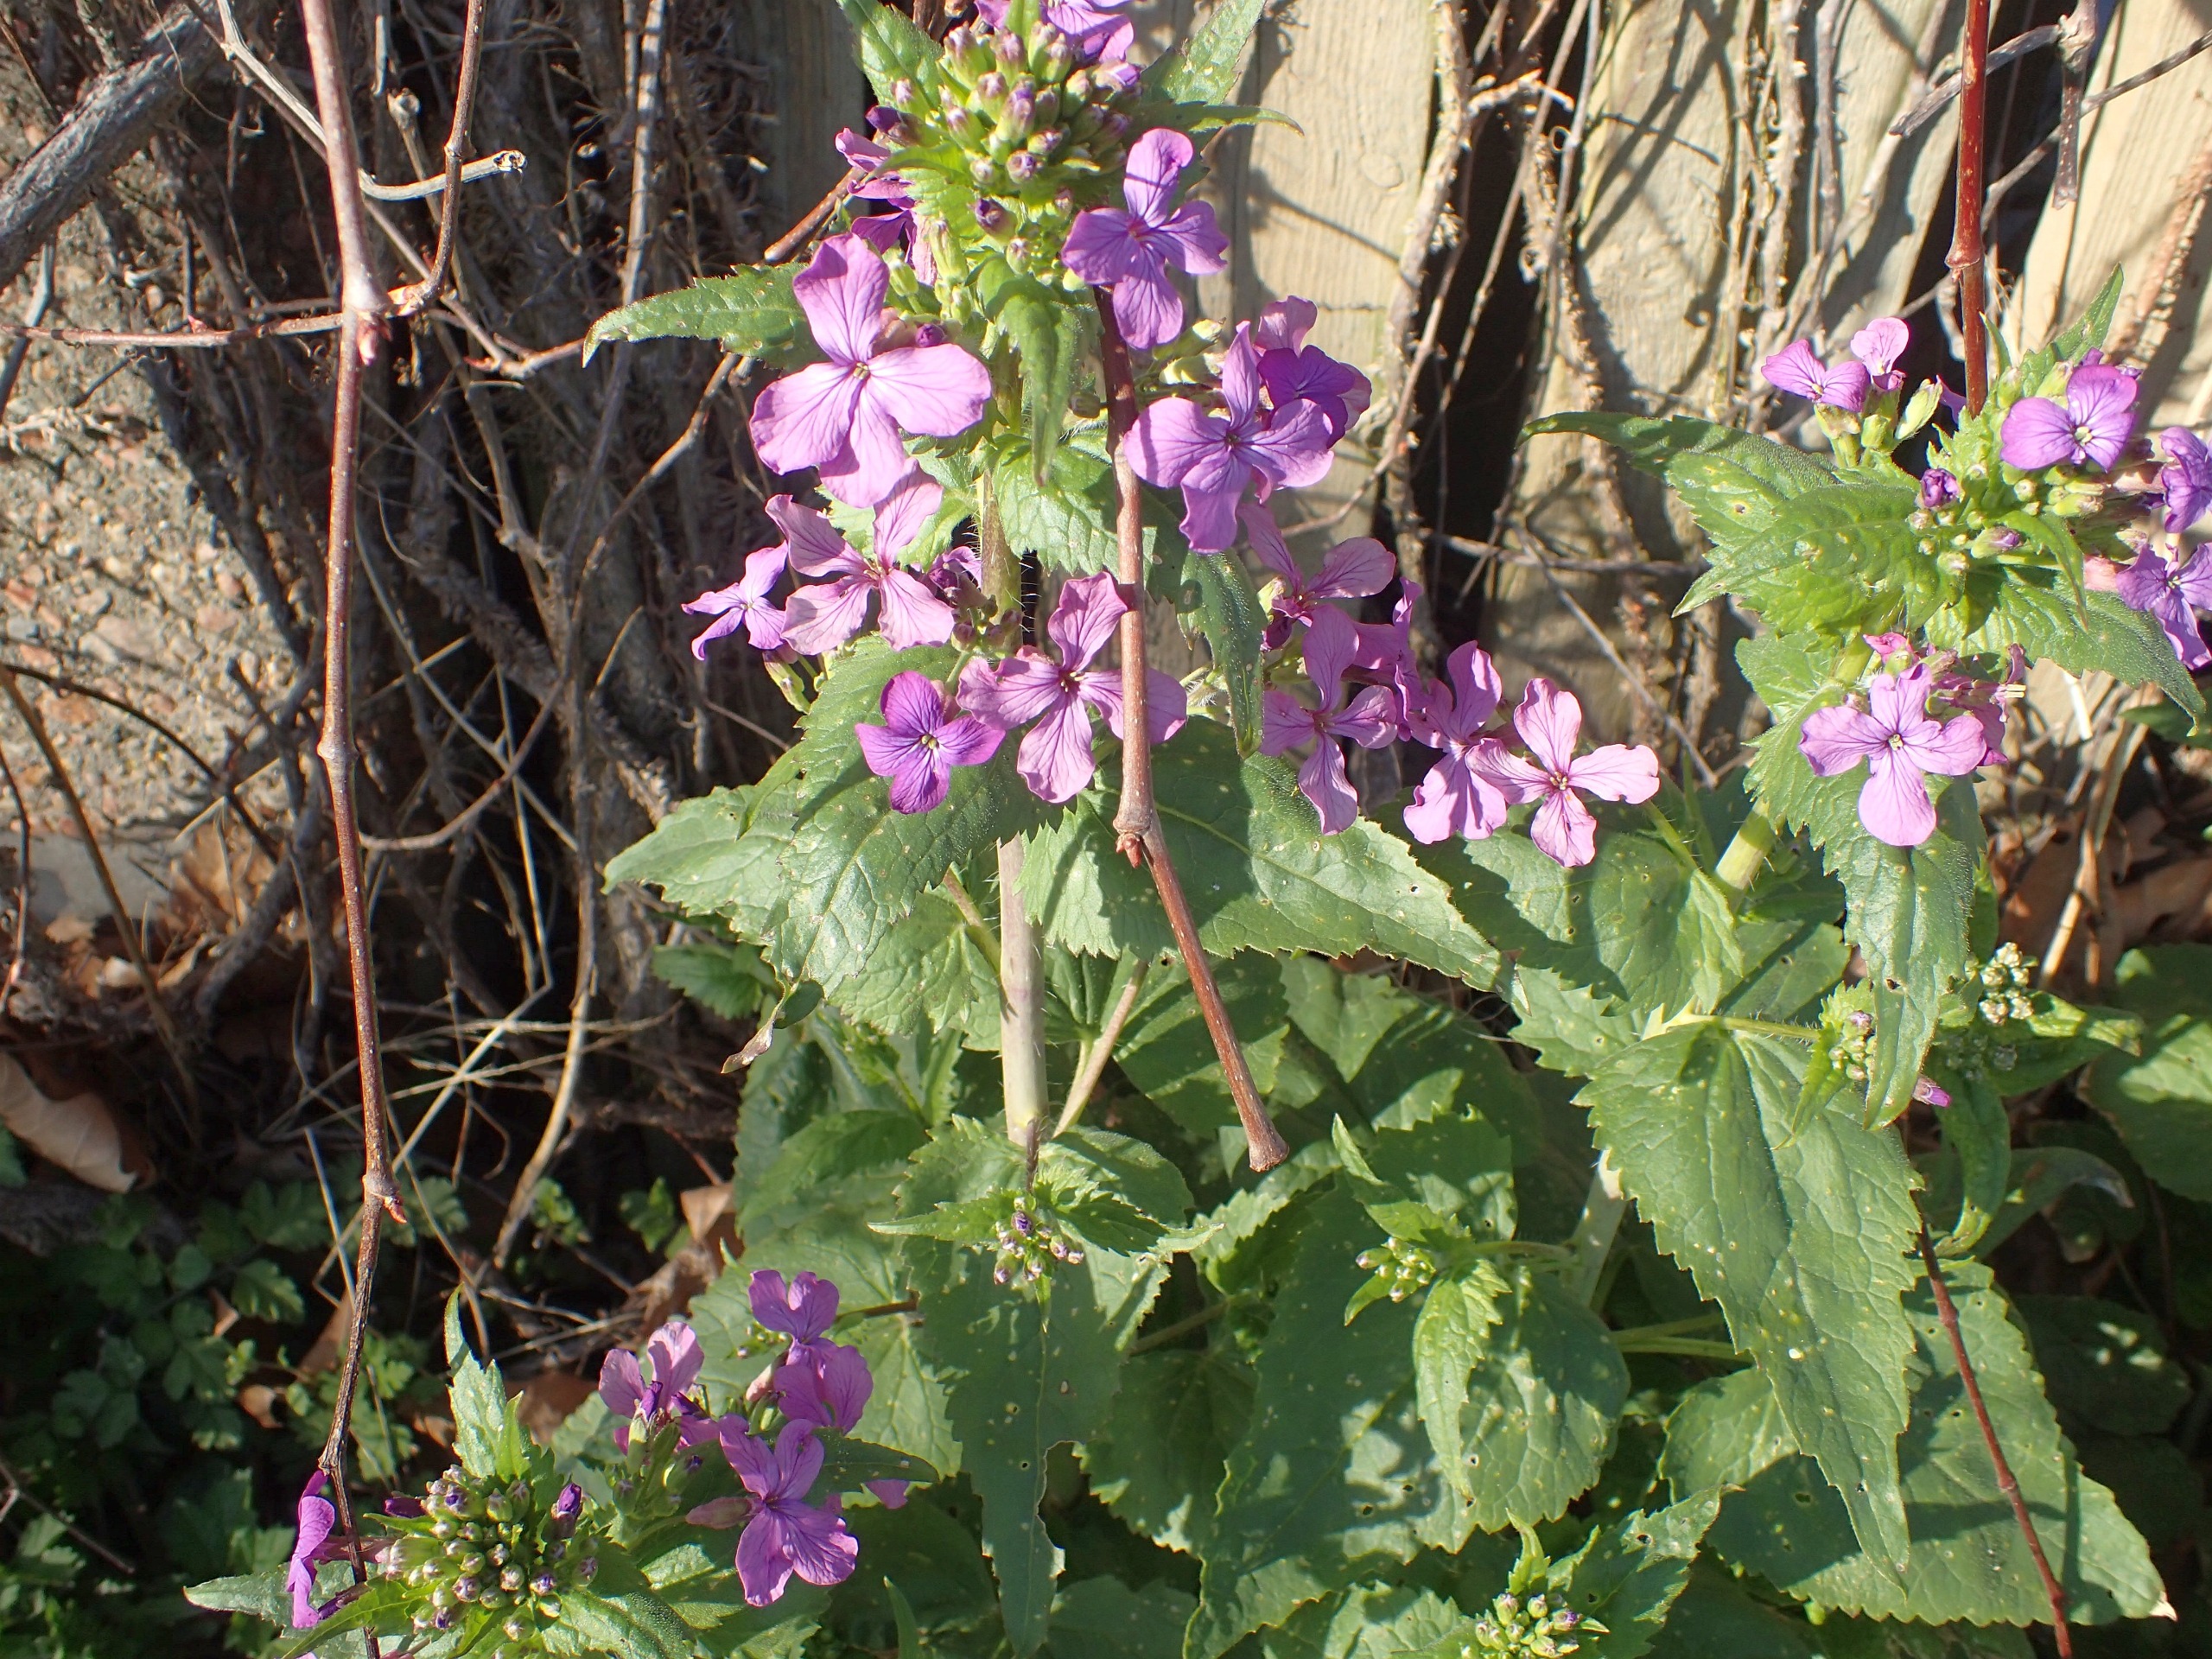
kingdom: Plantae
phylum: Tracheophyta
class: Magnoliopsida
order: Brassicales
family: Brassicaceae
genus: Lunaria
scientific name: Lunaria annua
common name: Judaspenge
